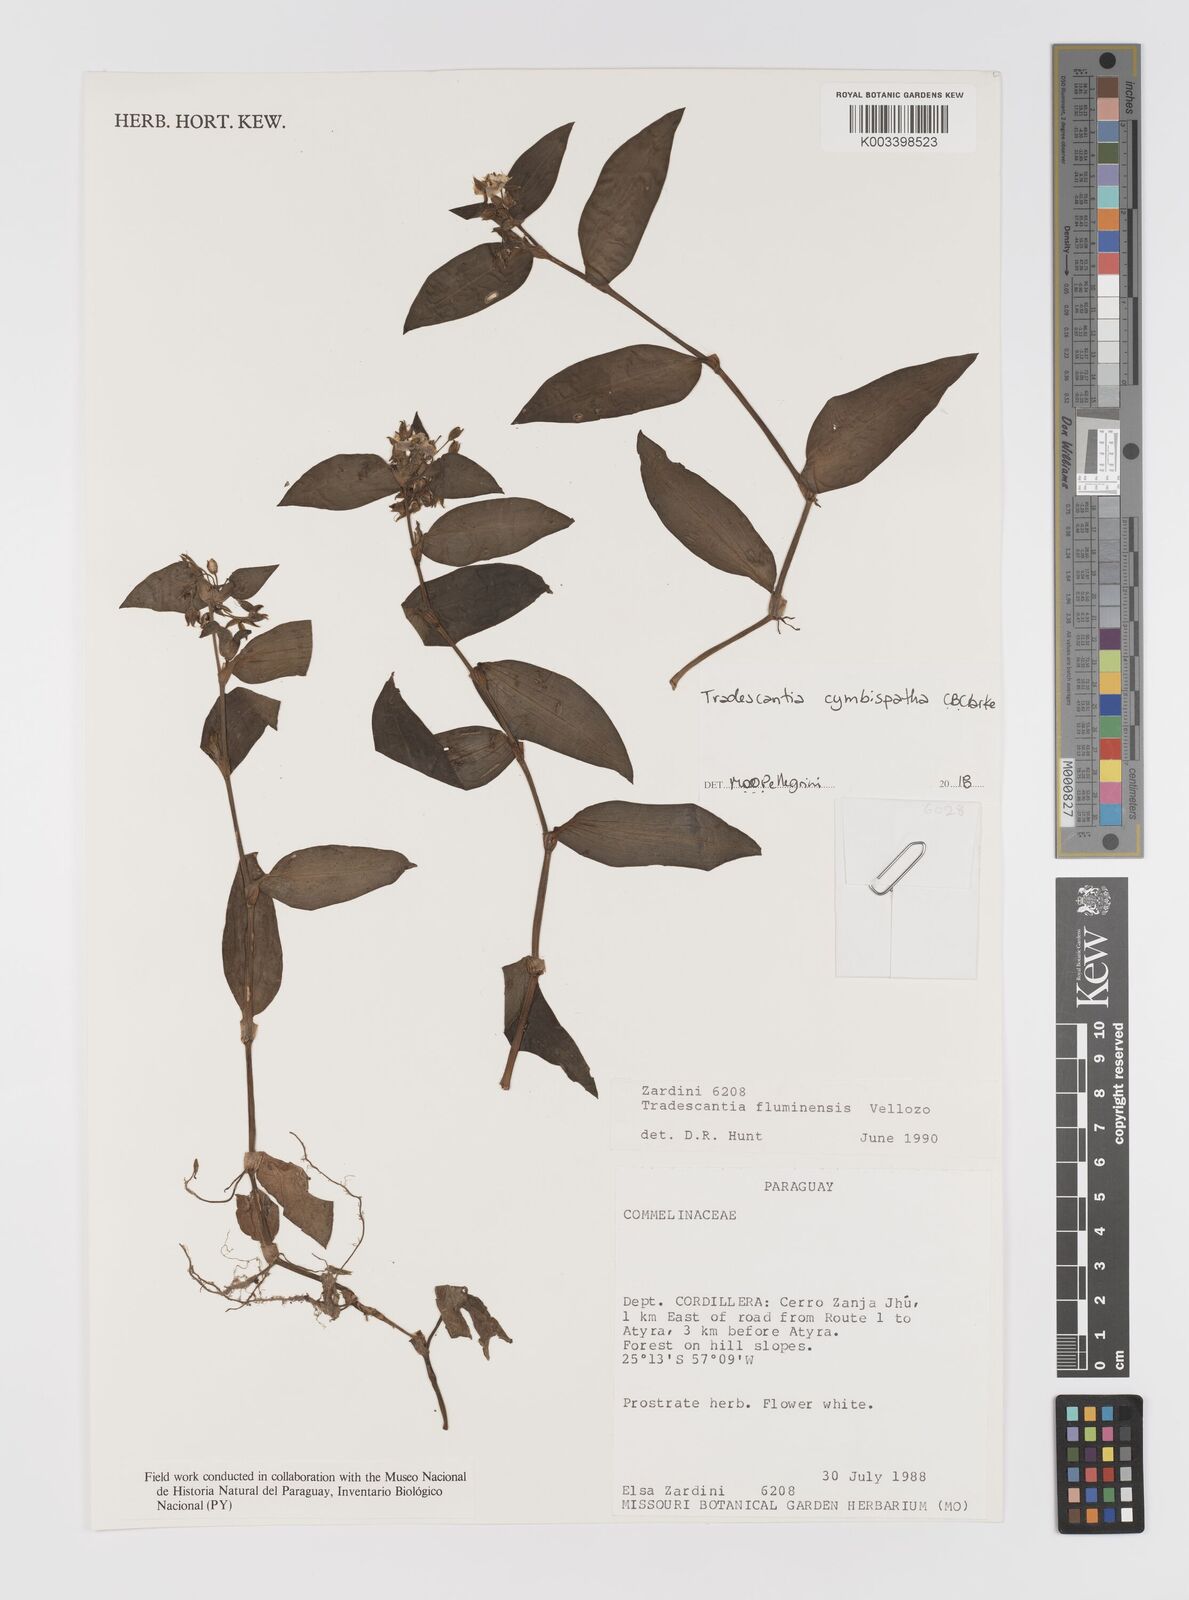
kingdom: Plantae
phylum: Tracheophyta
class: Liliopsida
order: Commelinales
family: Commelinaceae
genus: Tradescantia
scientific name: Tradescantia cymbispatha
